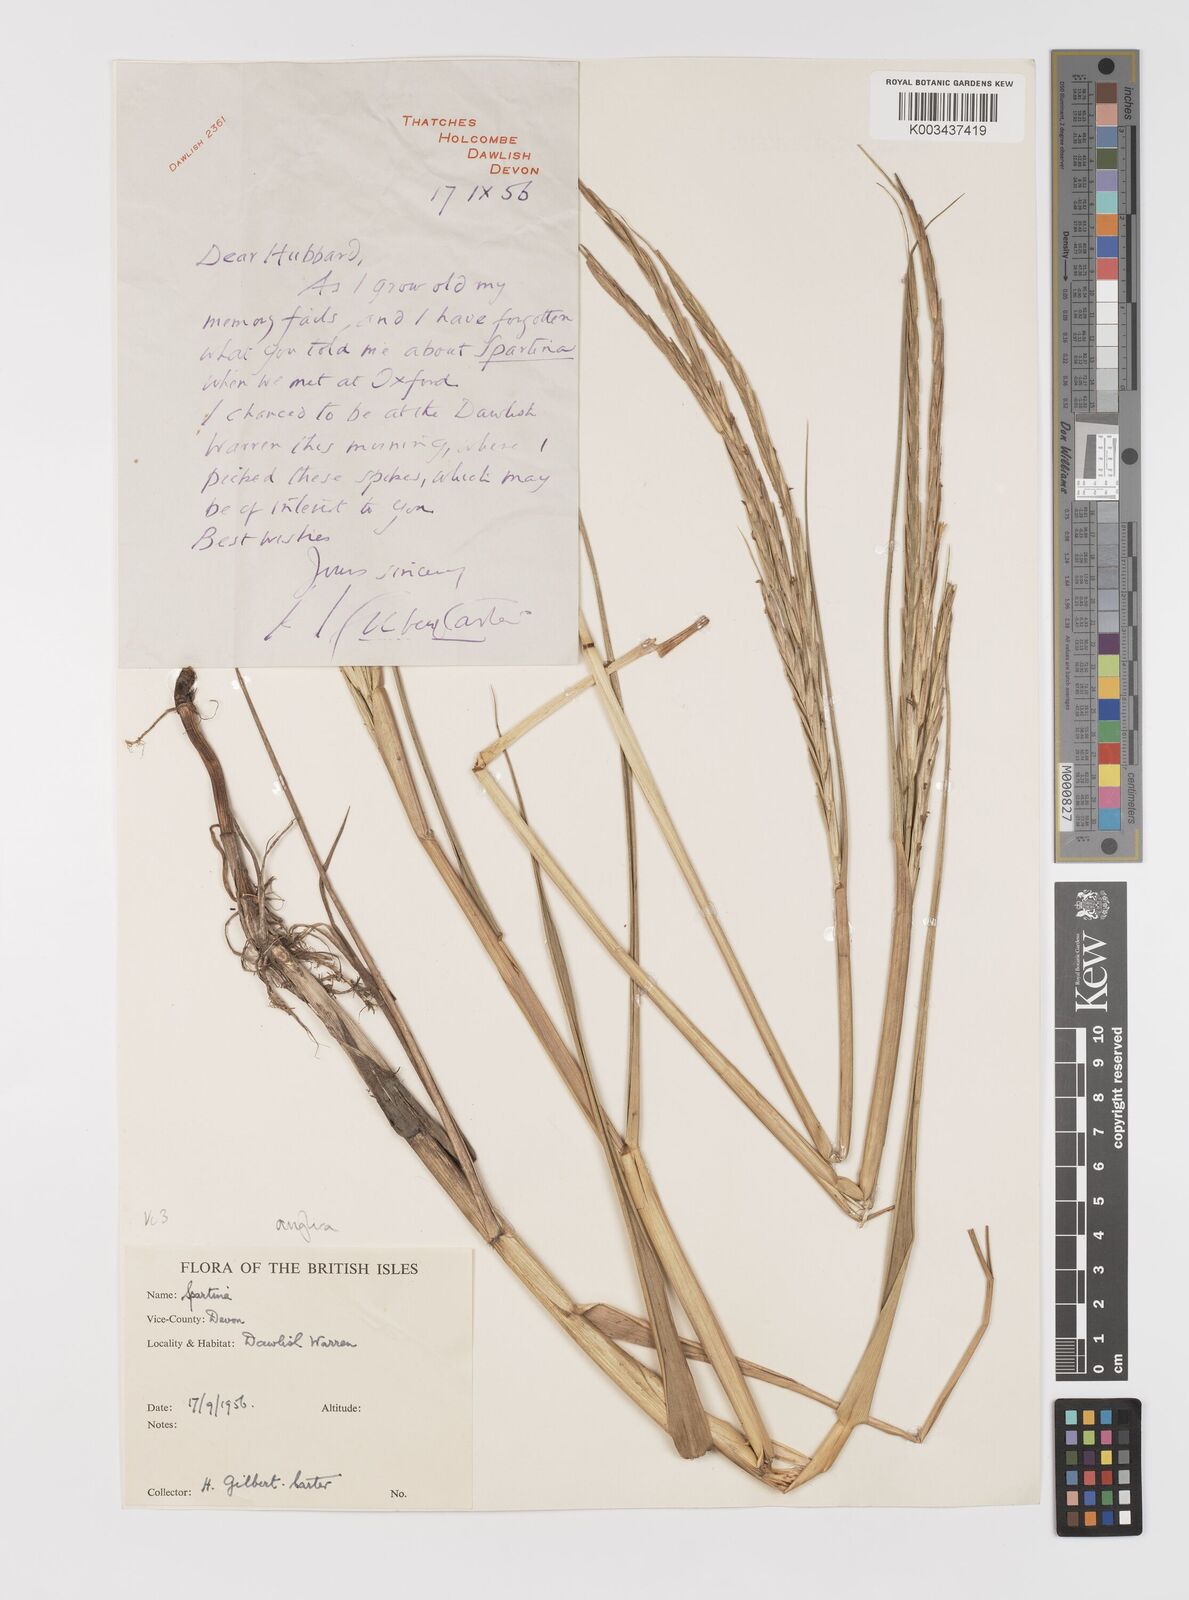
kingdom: Plantae
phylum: Tracheophyta
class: Liliopsida
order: Poales
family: Poaceae
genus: Sporobolus
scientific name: Sporobolus anglicus
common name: English cordgrass
